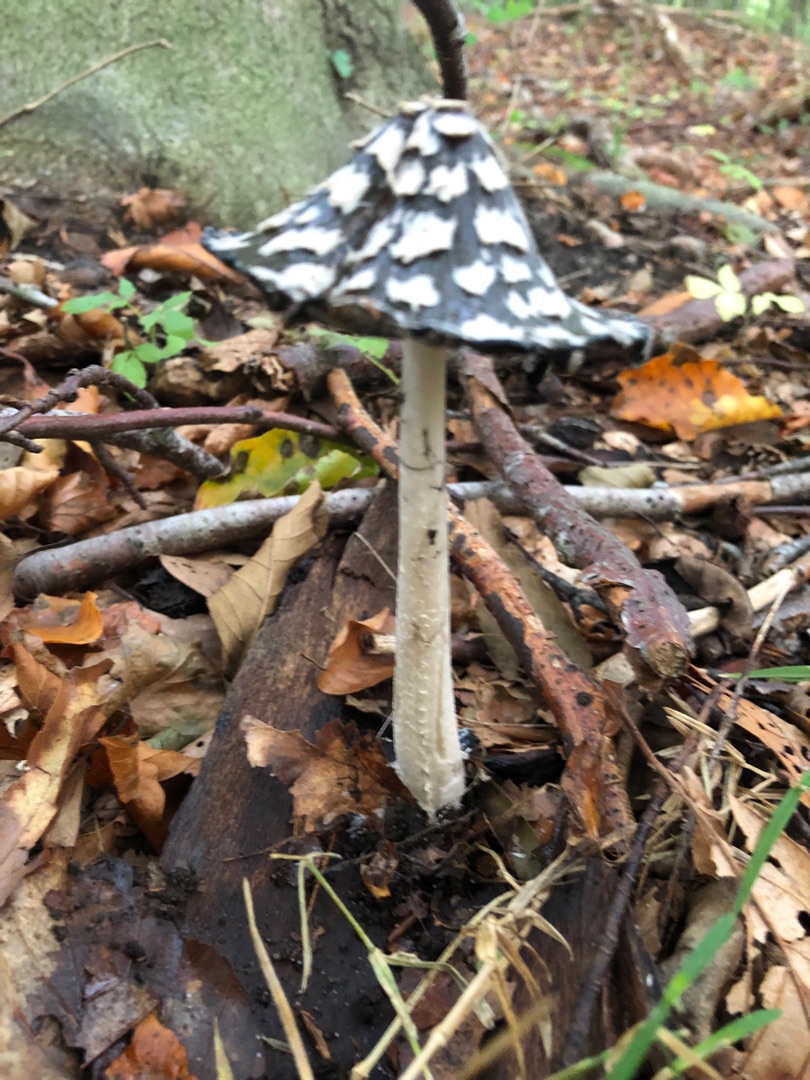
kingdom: Fungi
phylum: Basidiomycota
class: Agaricomycetes
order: Agaricales
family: Psathyrellaceae
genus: Coprinopsis
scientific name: Coprinopsis picacea
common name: Skade-blækhat
